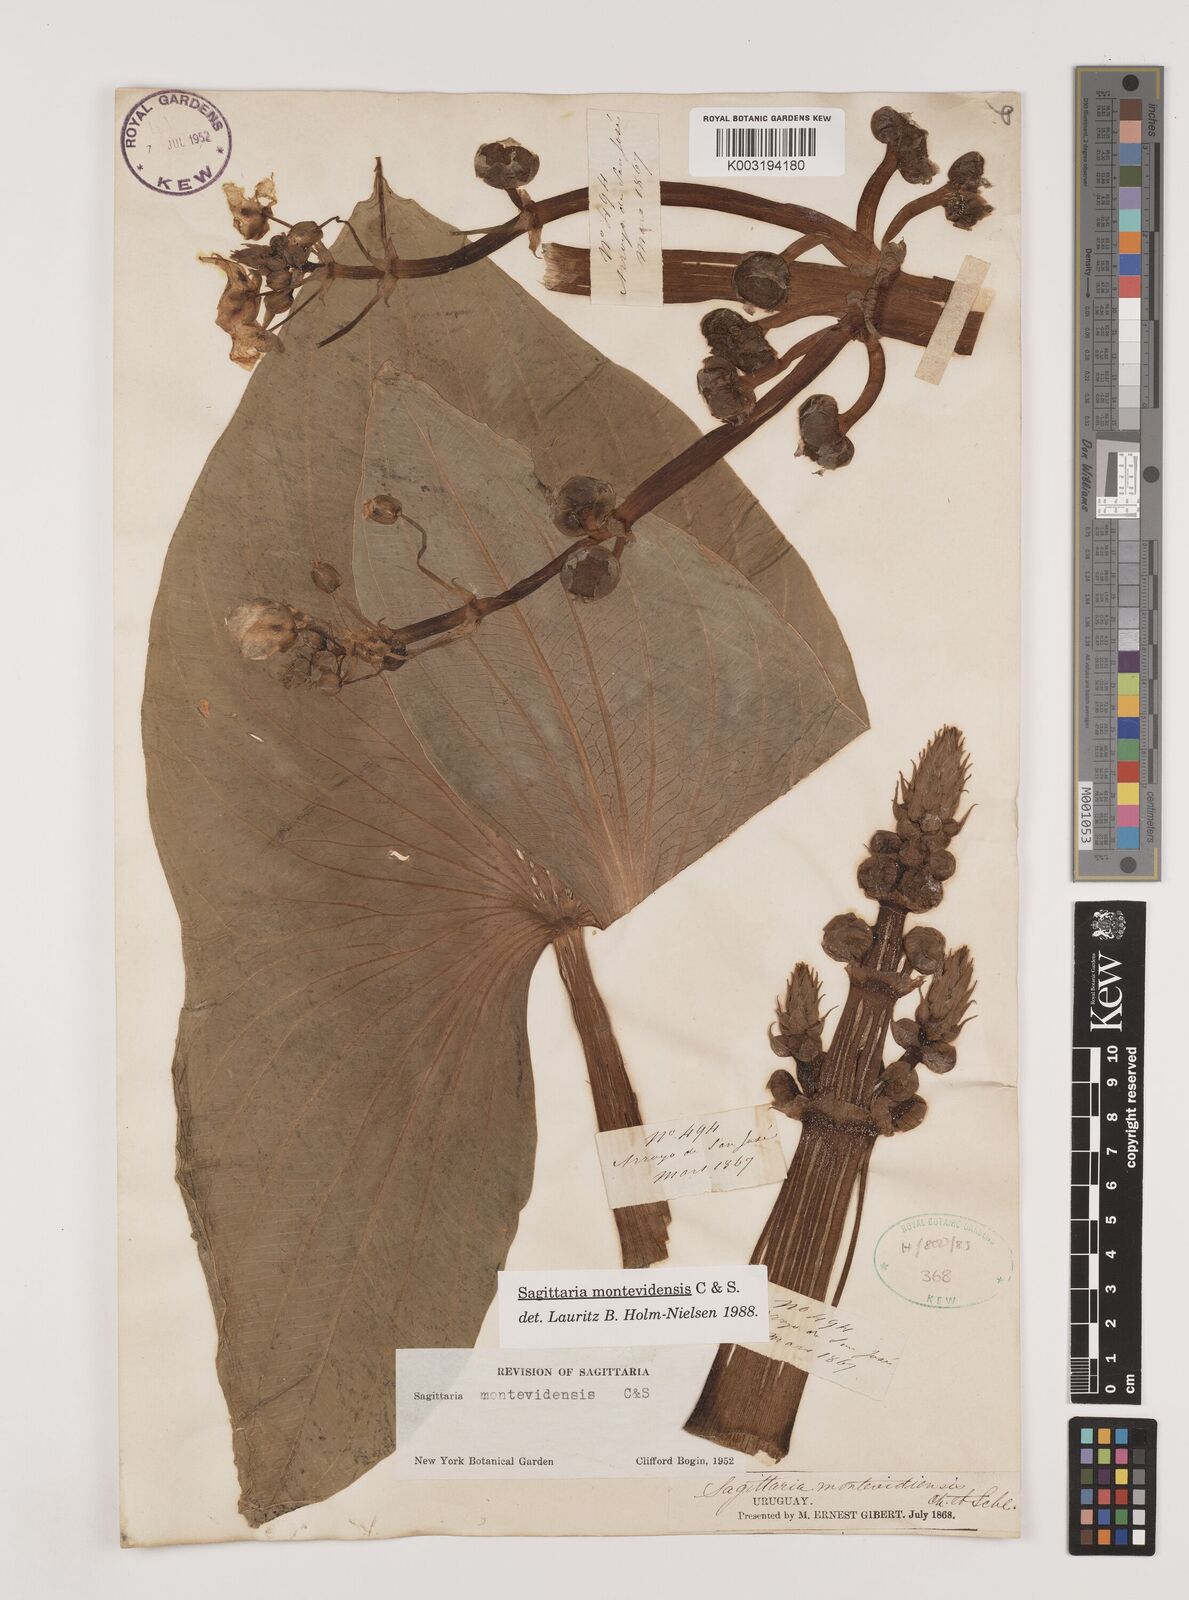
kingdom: Plantae
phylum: Tracheophyta
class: Liliopsida
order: Alismatales
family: Alismataceae
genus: Sagittaria
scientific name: Sagittaria montevidensis
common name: Giant arrowhead
